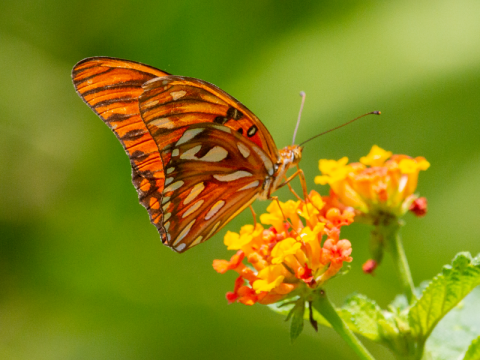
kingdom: Animalia
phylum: Arthropoda
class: Insecta
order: Lepidoptera
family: Nymphalidae
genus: Dione
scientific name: Dione vanillae
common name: Gulf Fritillary
